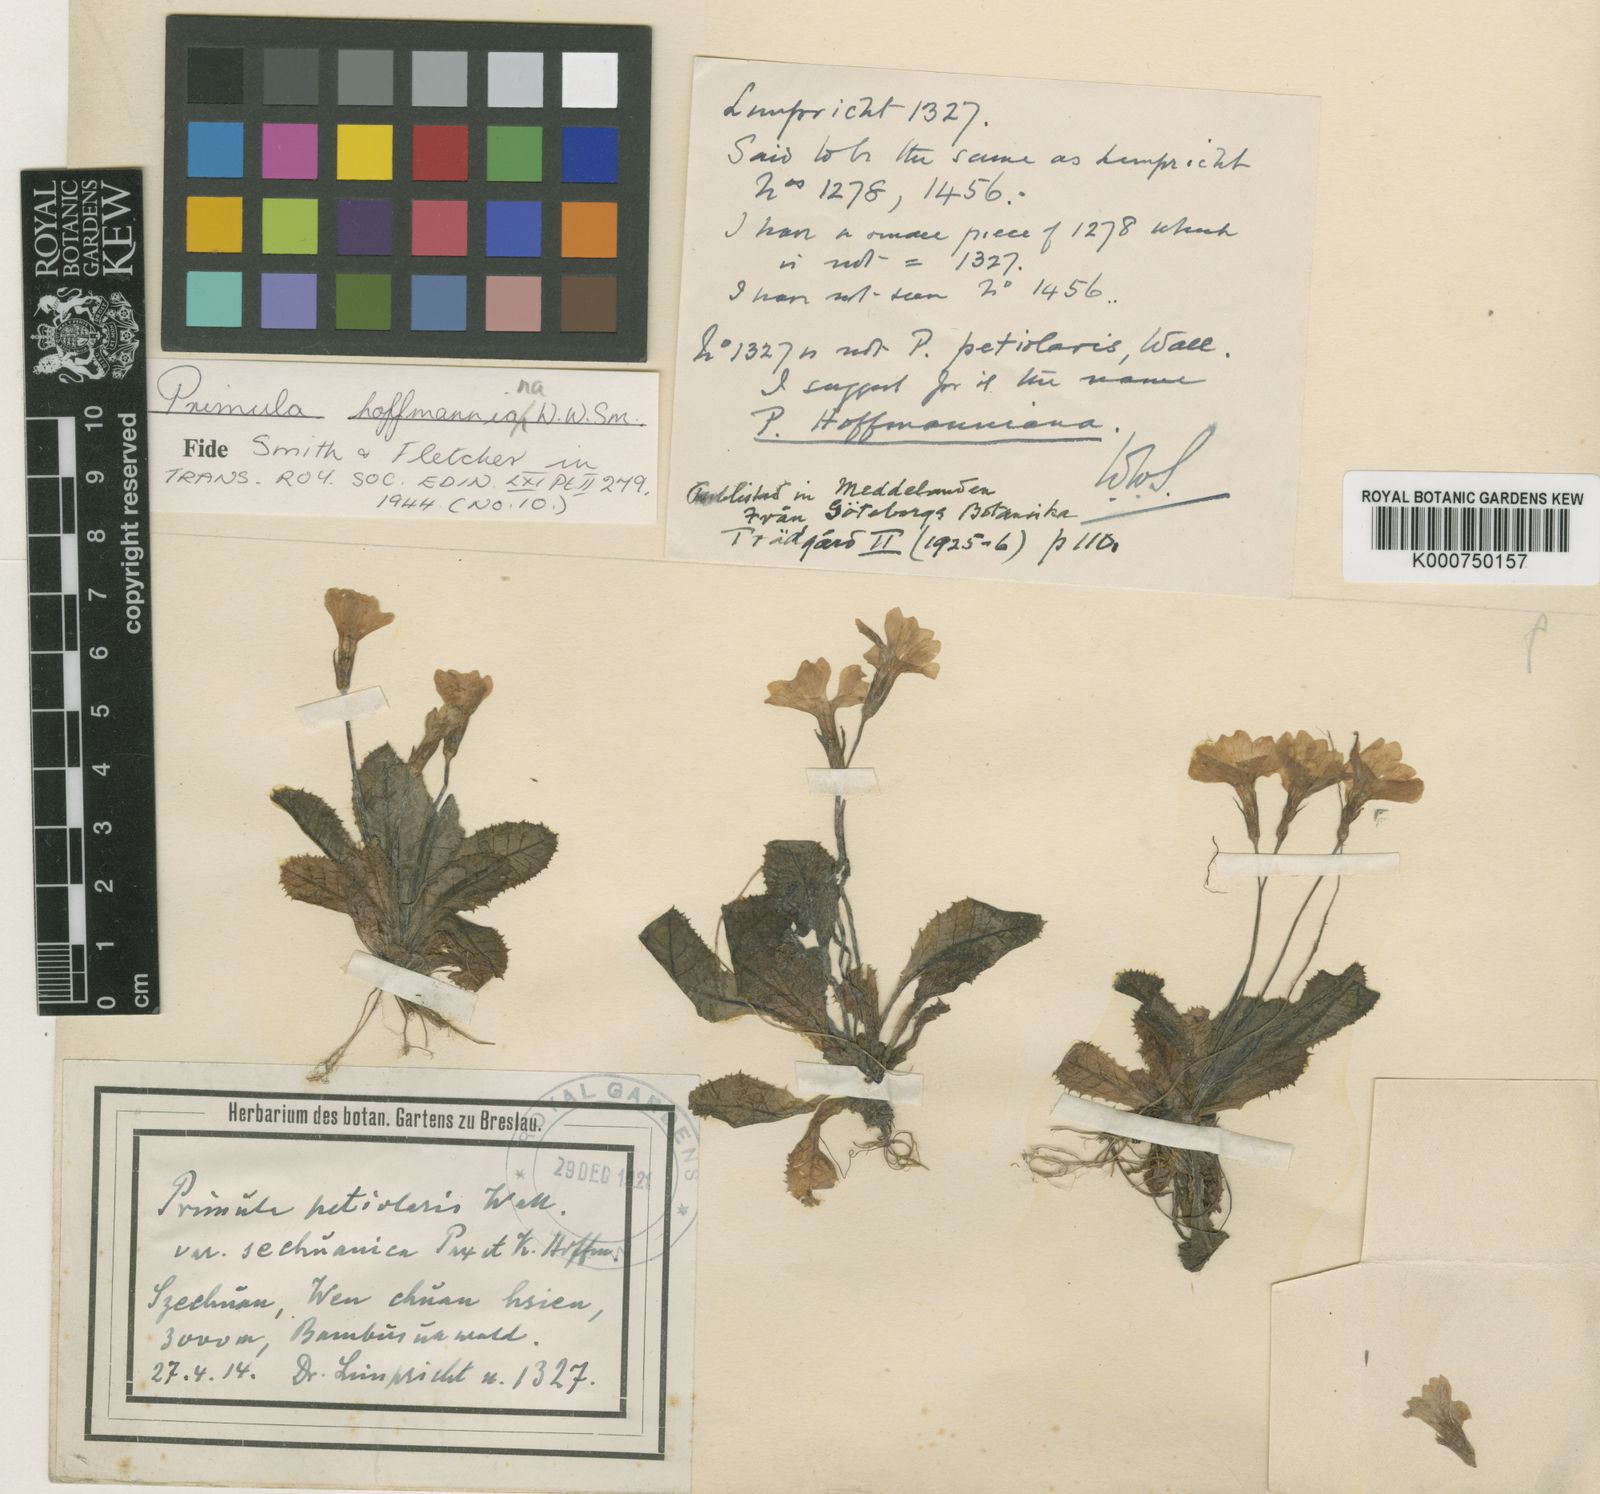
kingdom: Plantae
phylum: Tracheophyta
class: Magnoliopsida
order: Ericales
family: Primulaceae
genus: Primula
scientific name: Primula
